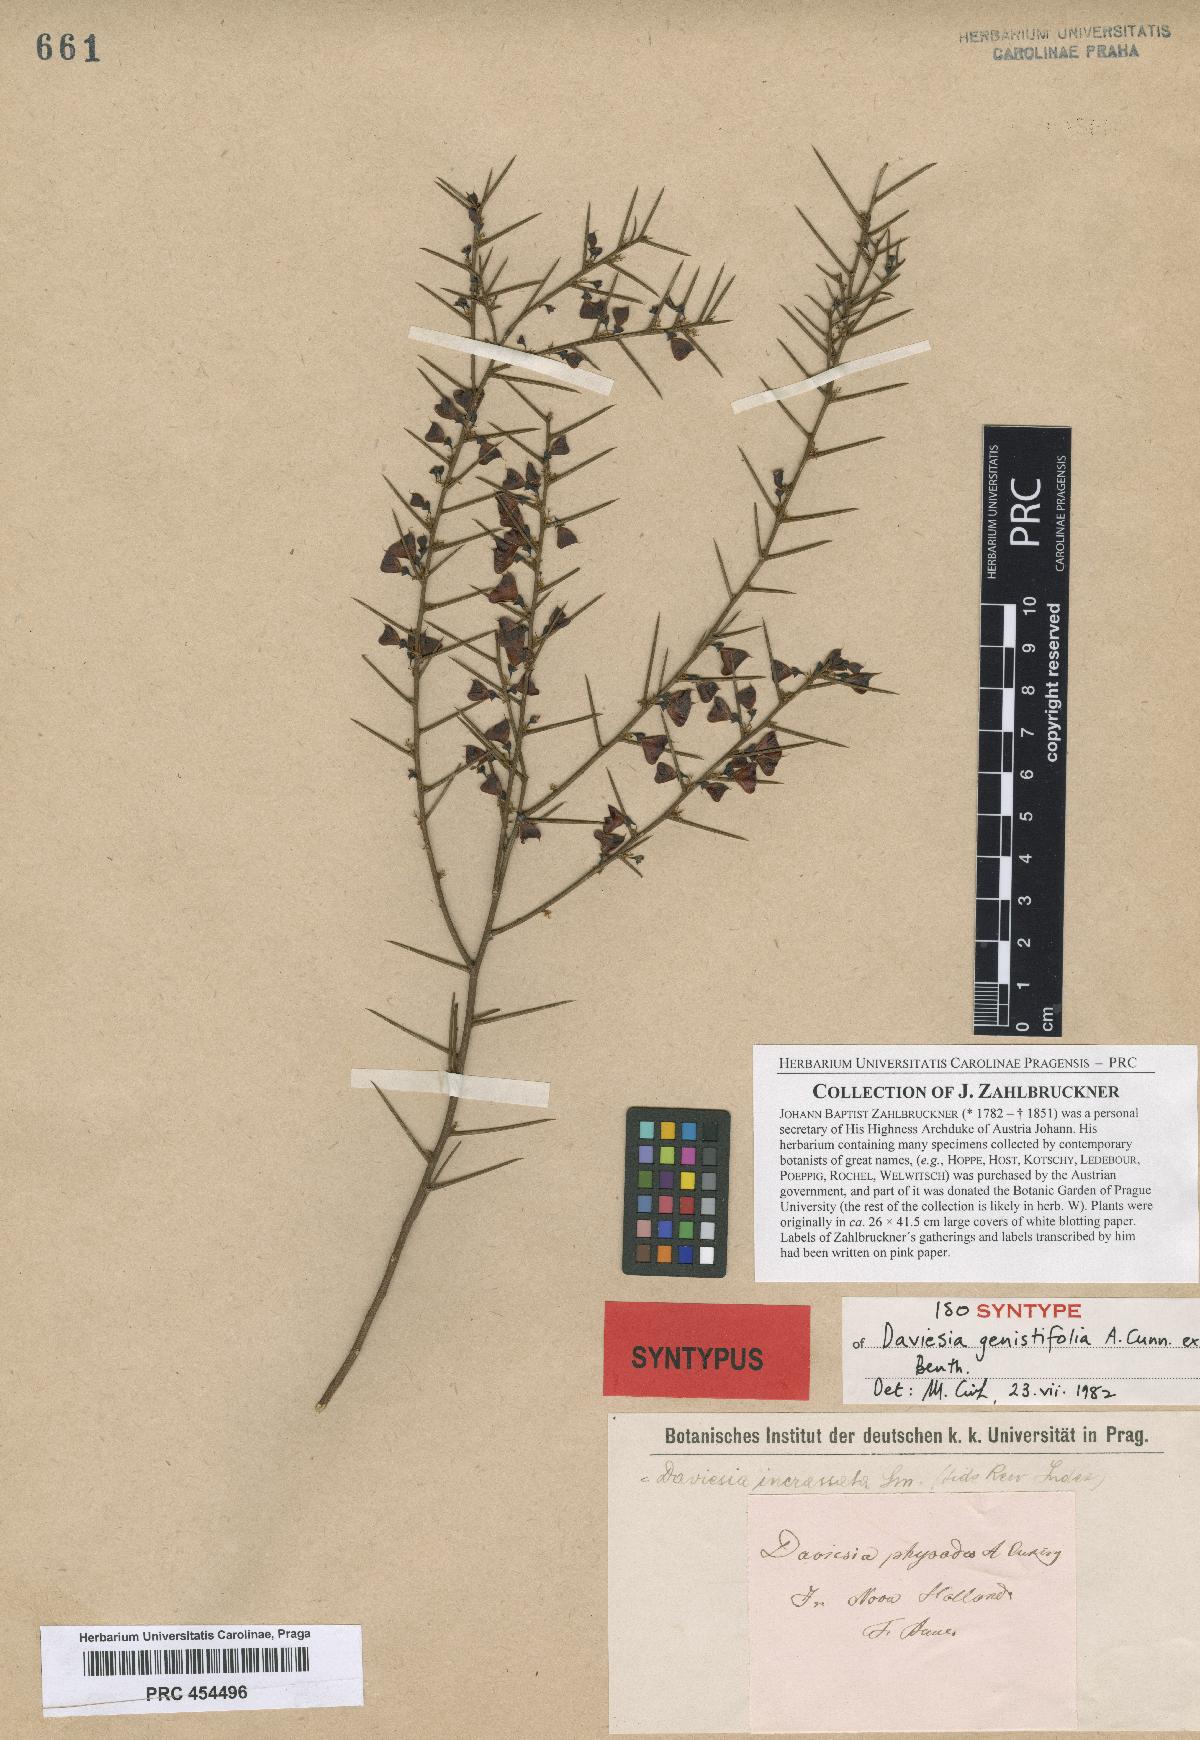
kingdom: Plantae
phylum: Tracheophyta
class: Magnoliopsida
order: Fabales
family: Fabaceae
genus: Daviesia
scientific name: Daviesia genistifolia
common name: Broom bitter-pea
